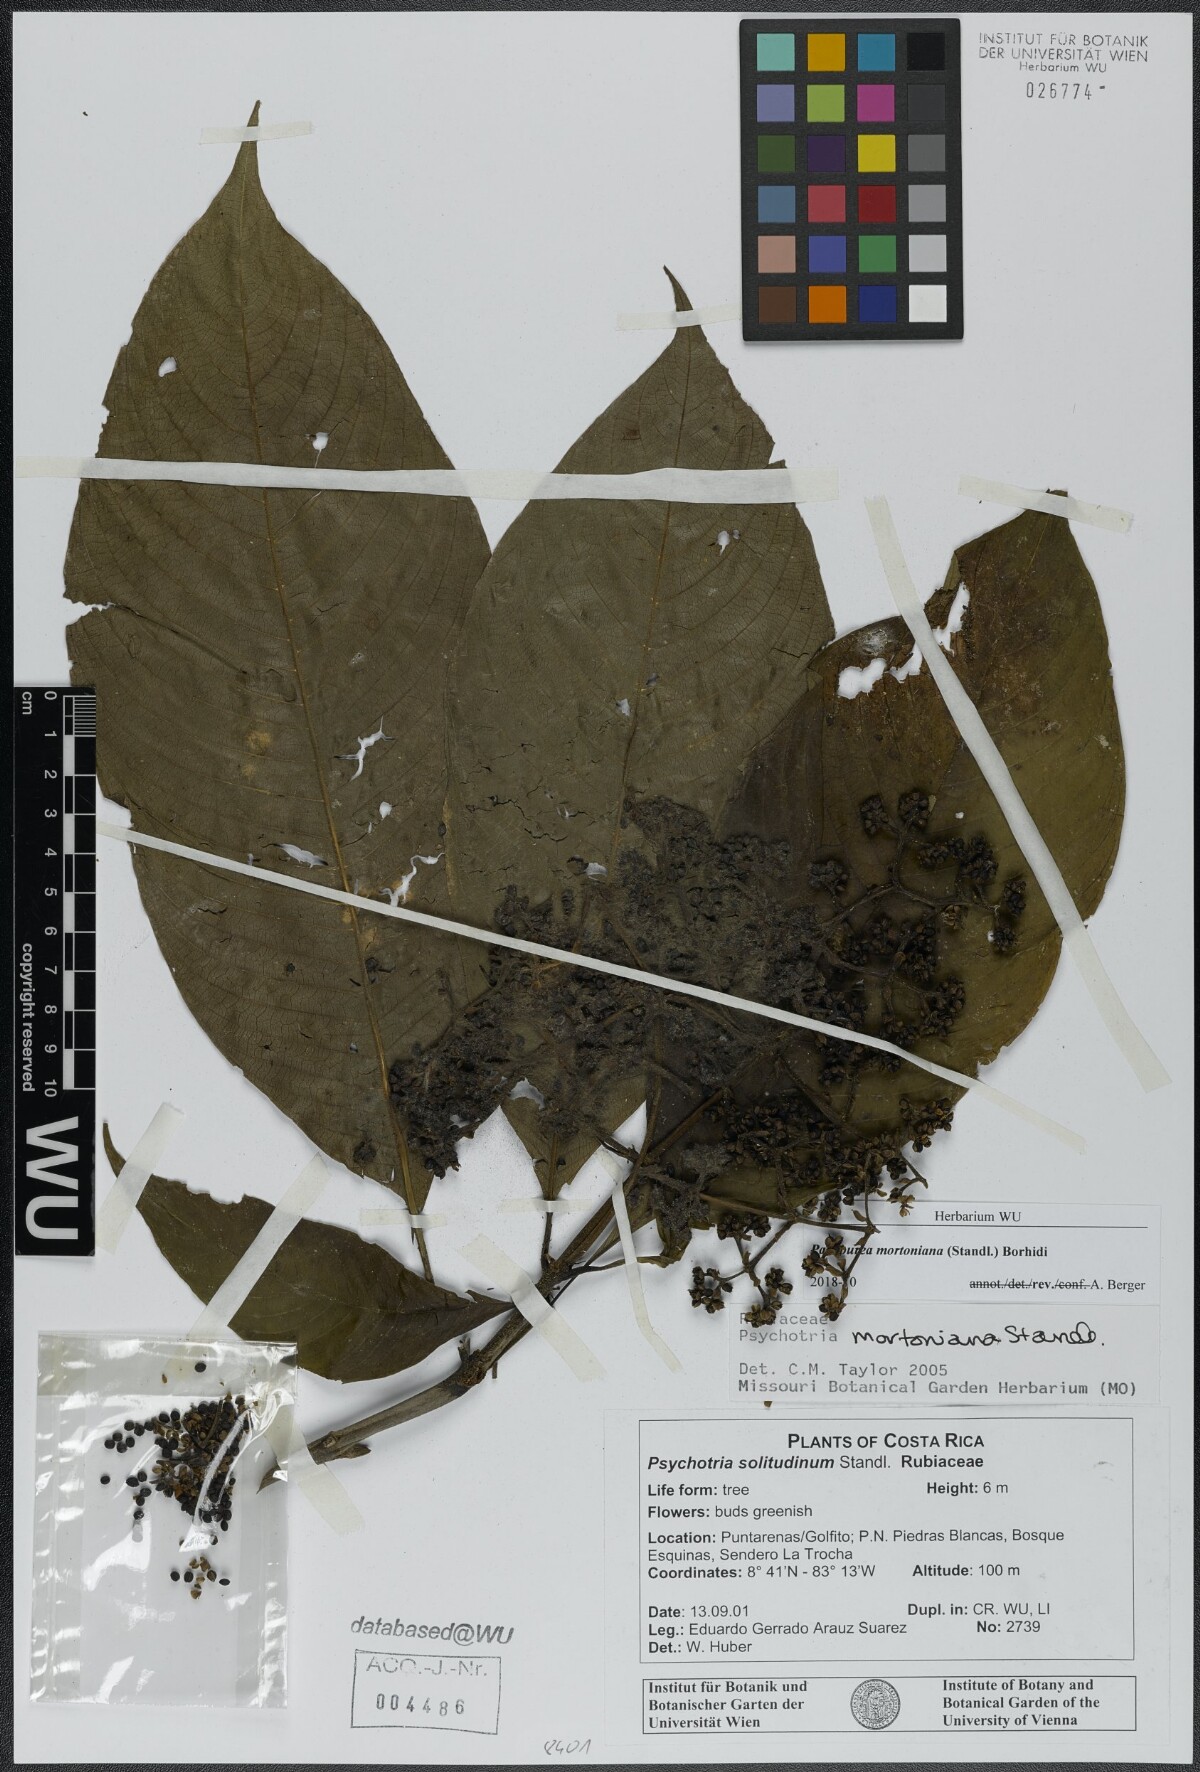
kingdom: Plantae
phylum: Tracheophyta
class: Magnoliopsida
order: Gentianales
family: Rubiaceae
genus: Palicourea
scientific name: Palicourea mortoniana
